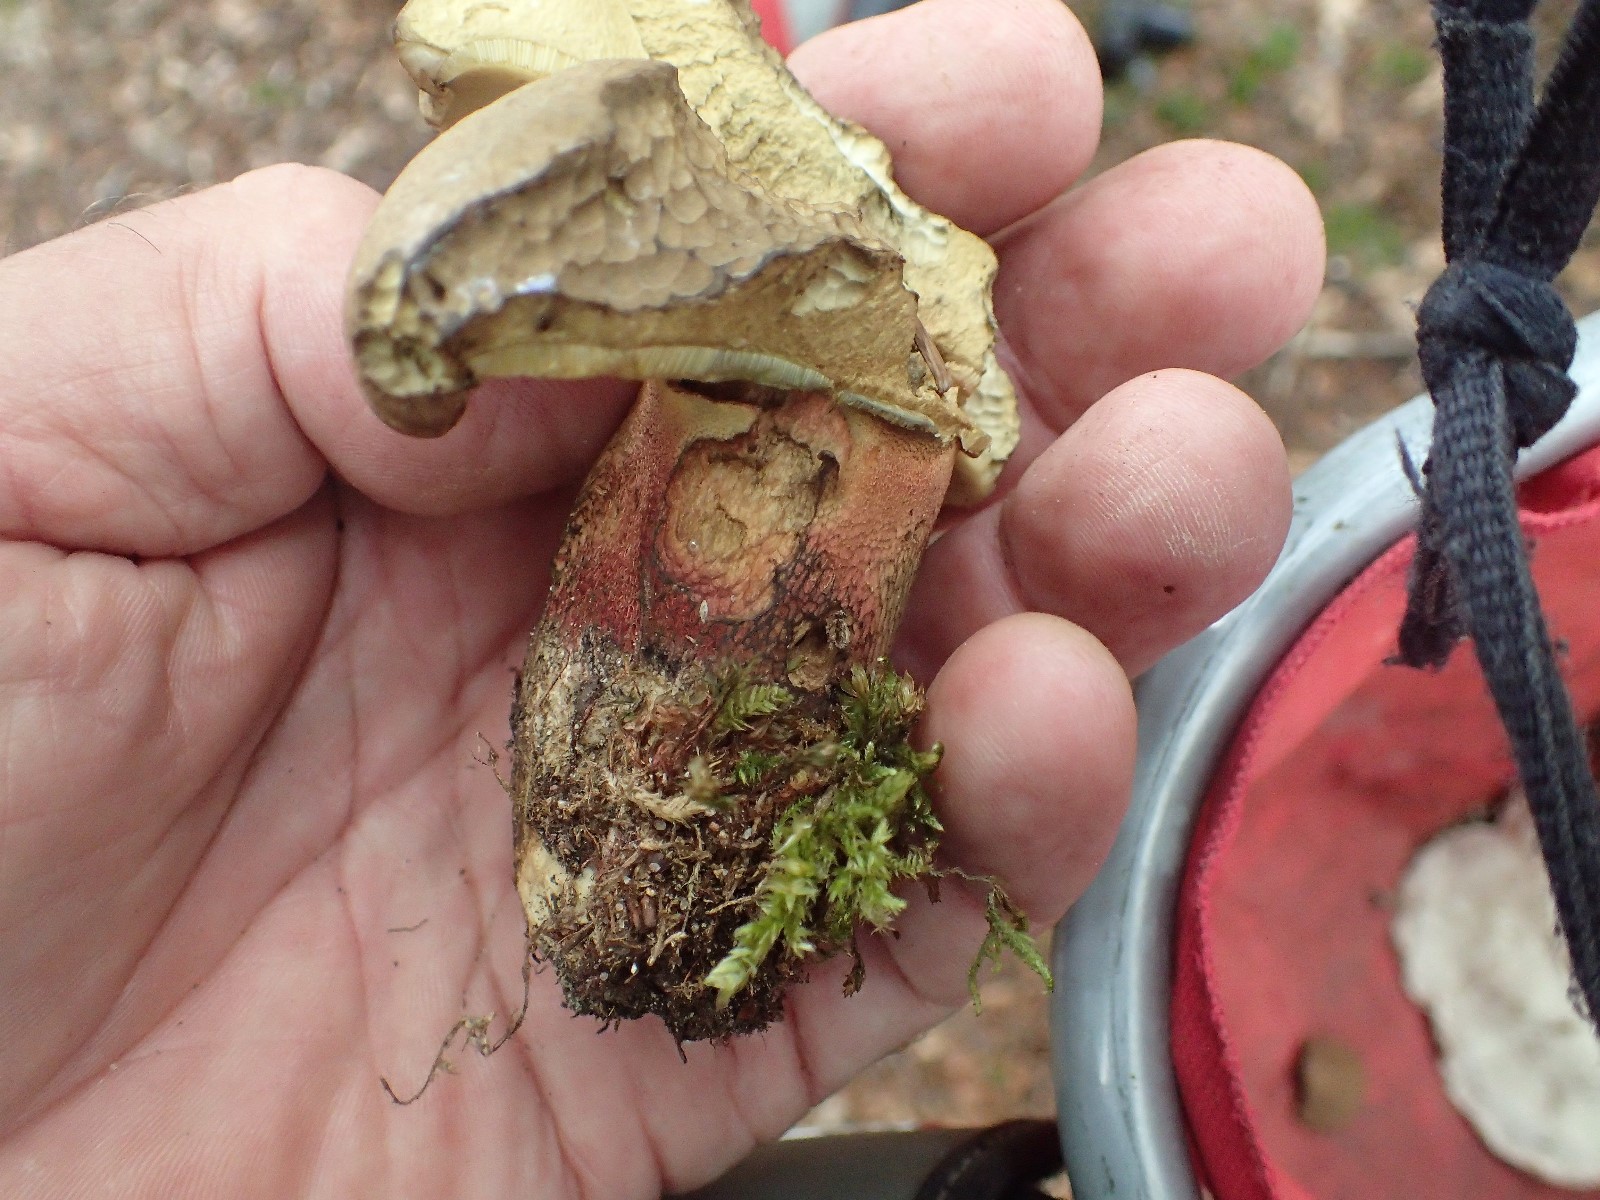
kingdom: Fungi
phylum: Basidiomycota
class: Agaricomycetes
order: Boletales
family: Boletaceae
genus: Caloboletus
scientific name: Caloboletus calopus
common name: skønfodet rørhat
